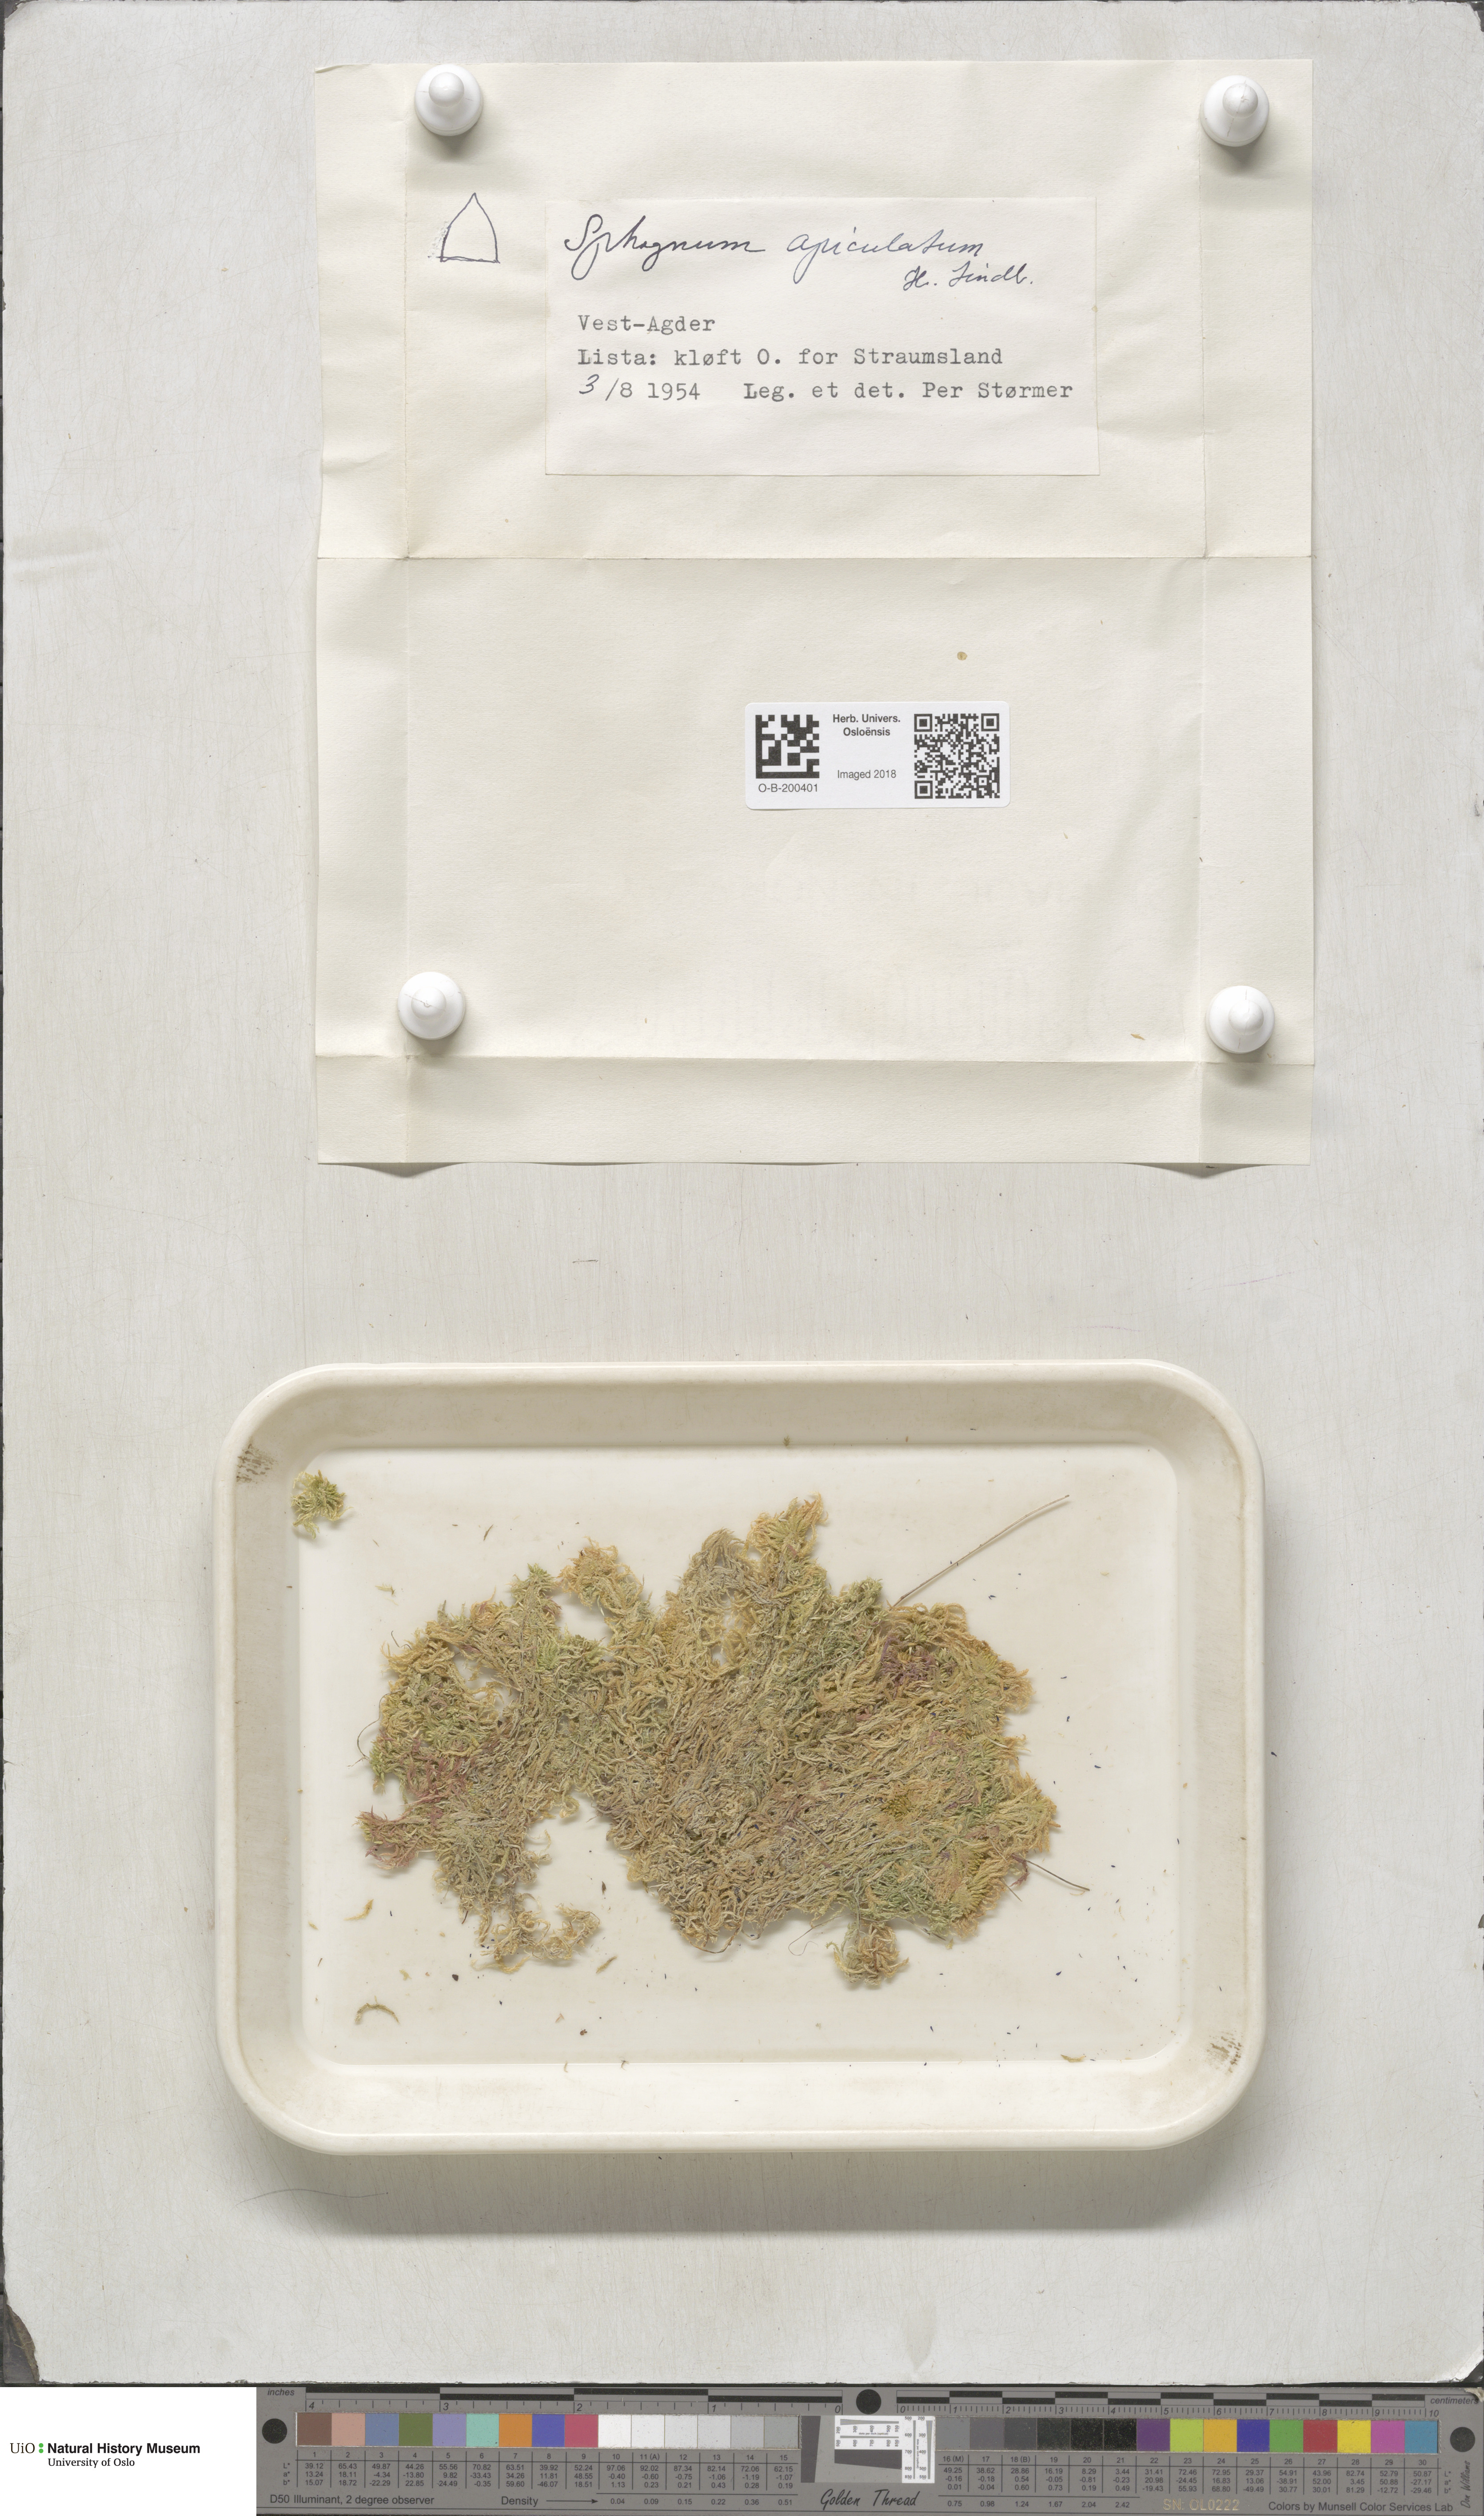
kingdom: Plantae
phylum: Bryophyta
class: Sphagnopsida
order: Sphagnales
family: Sphagnaceae
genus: Sphagnum
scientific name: Sphagnum fallax
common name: Flat-top peat moss
